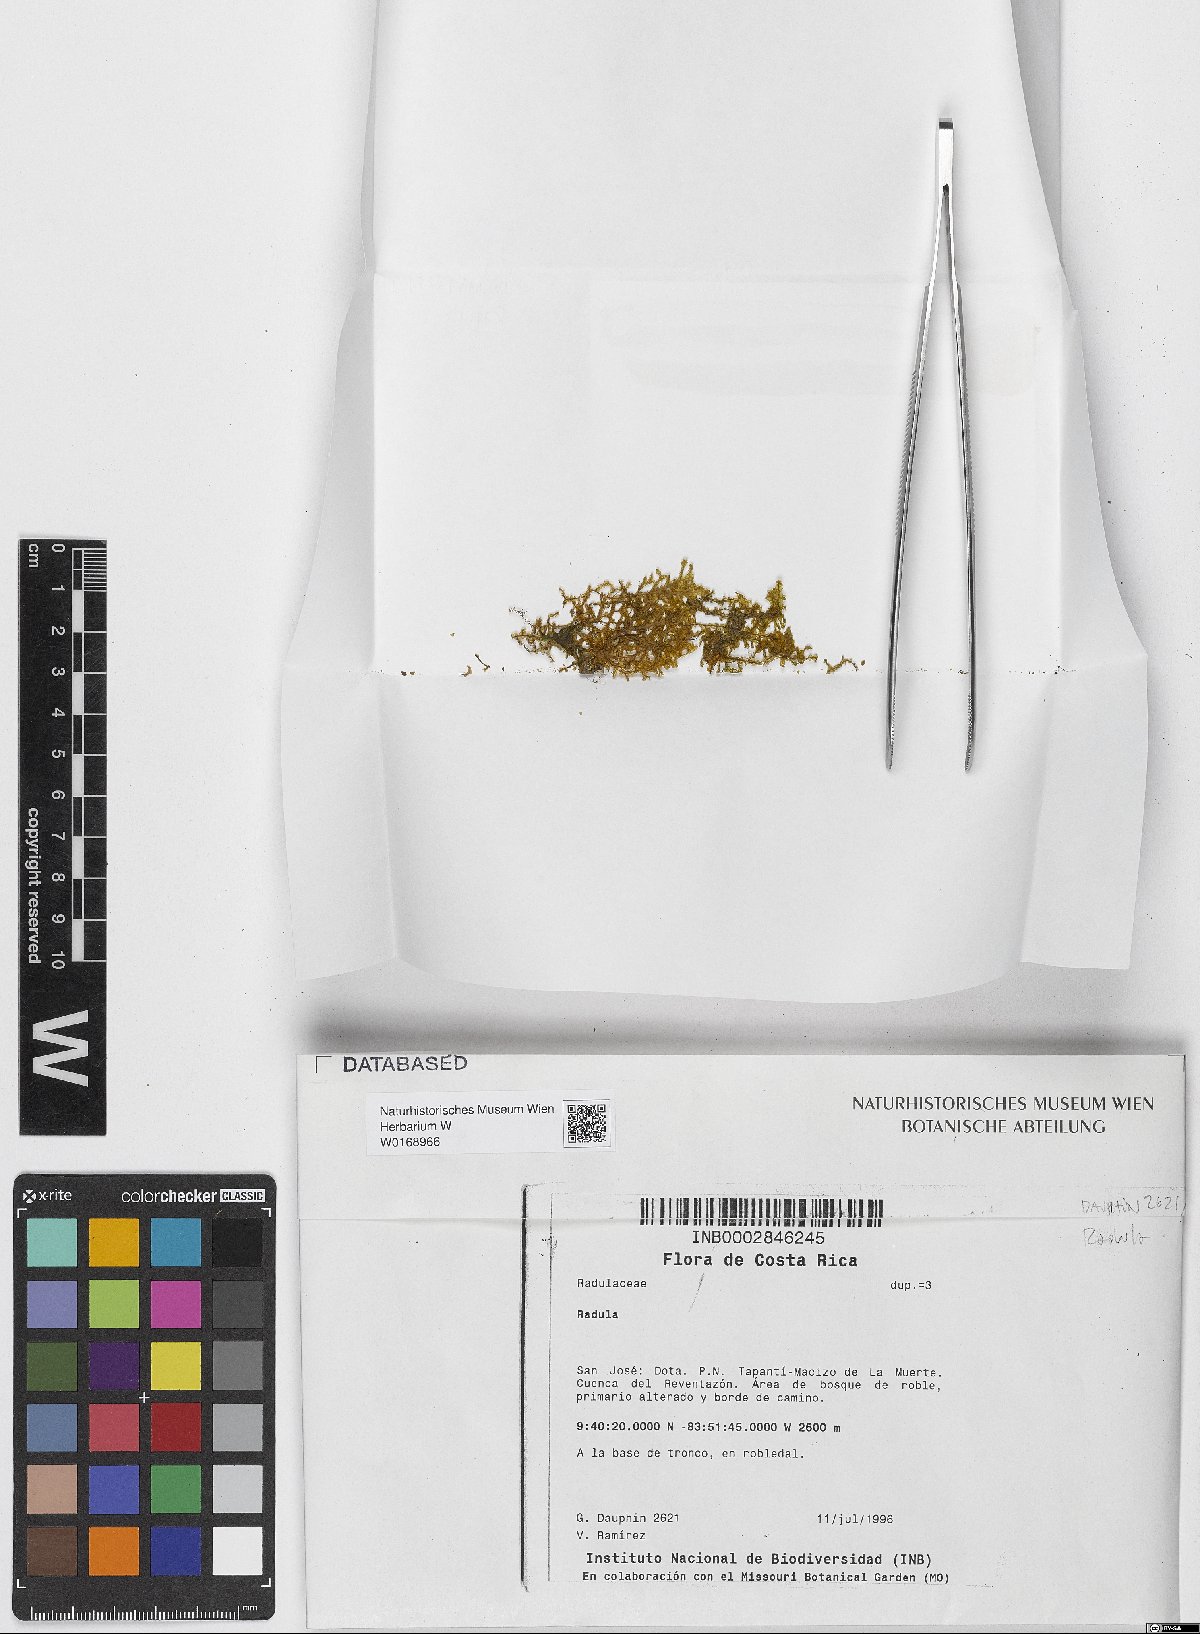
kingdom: Plantae
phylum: Marchantiophyta
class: Jungermanniopsida
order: Porellales
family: Radulaceae
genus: Radula
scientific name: Radula
